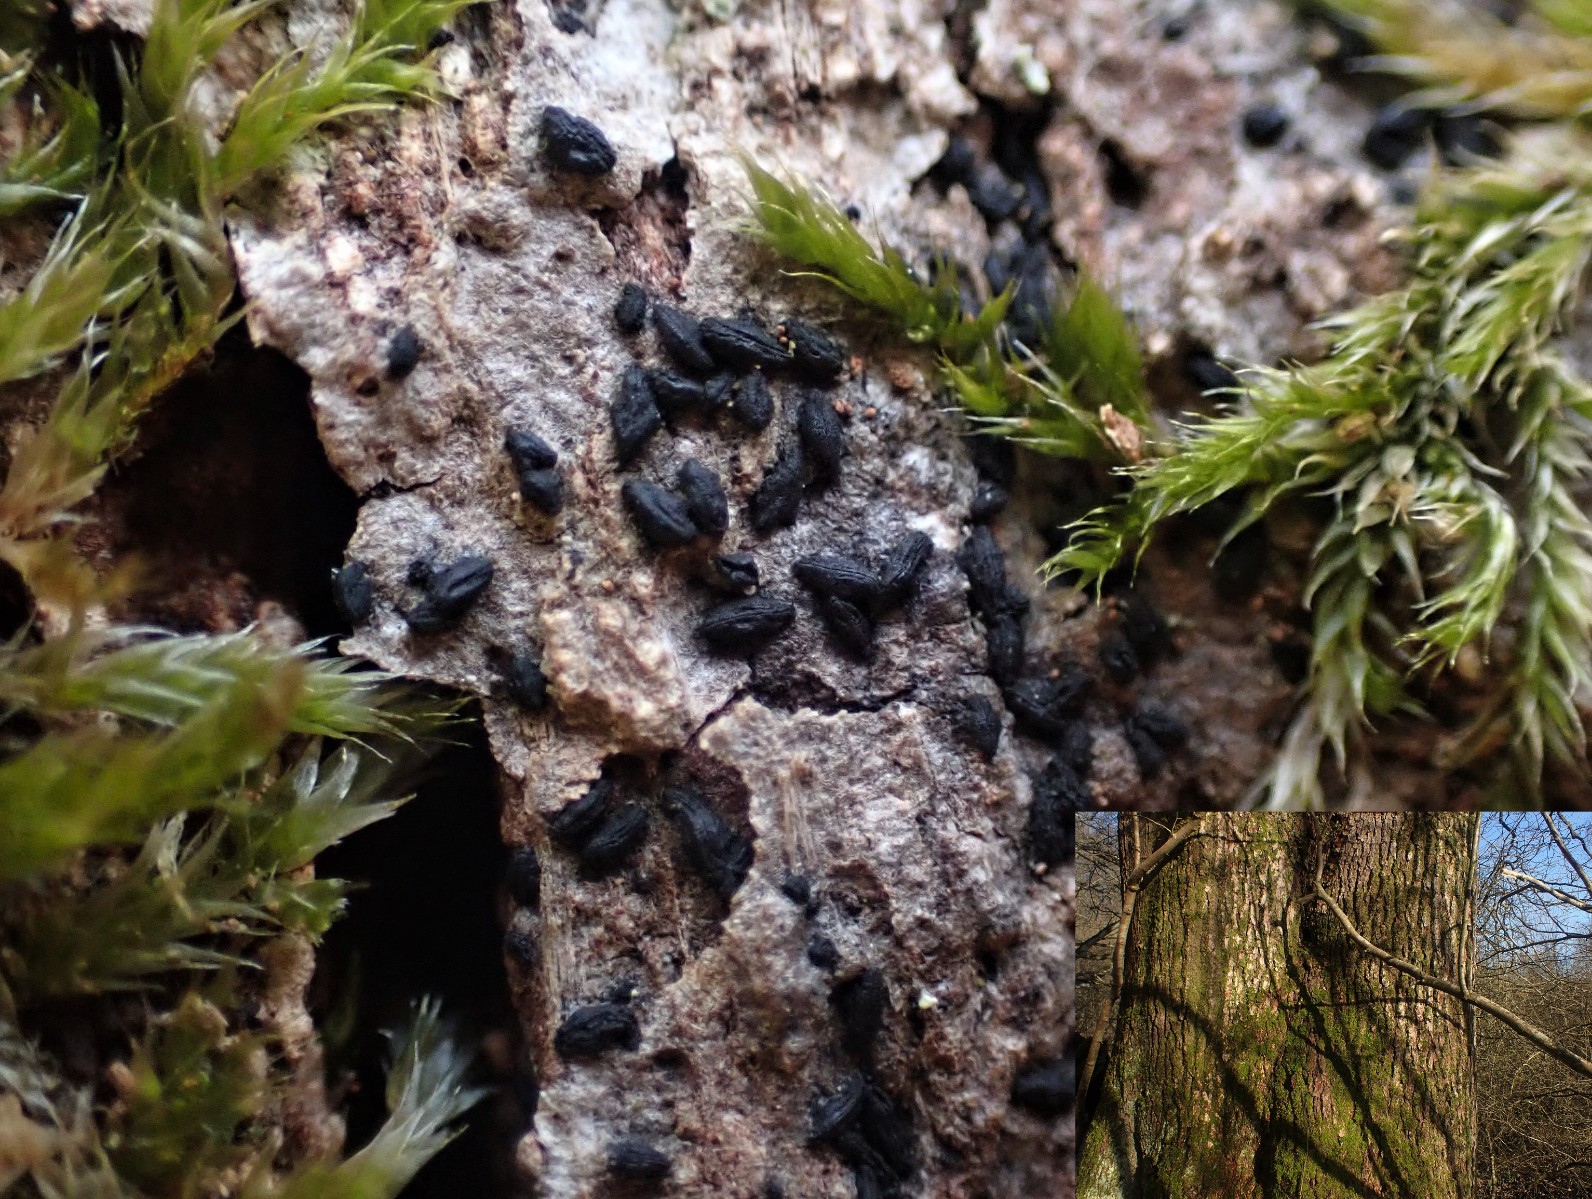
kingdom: Fungi
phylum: Ascomycota
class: Dothideomycetes
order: Hysteriales
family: Hysteriaceae
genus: Hysterium
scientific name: Hysterium pulicare
